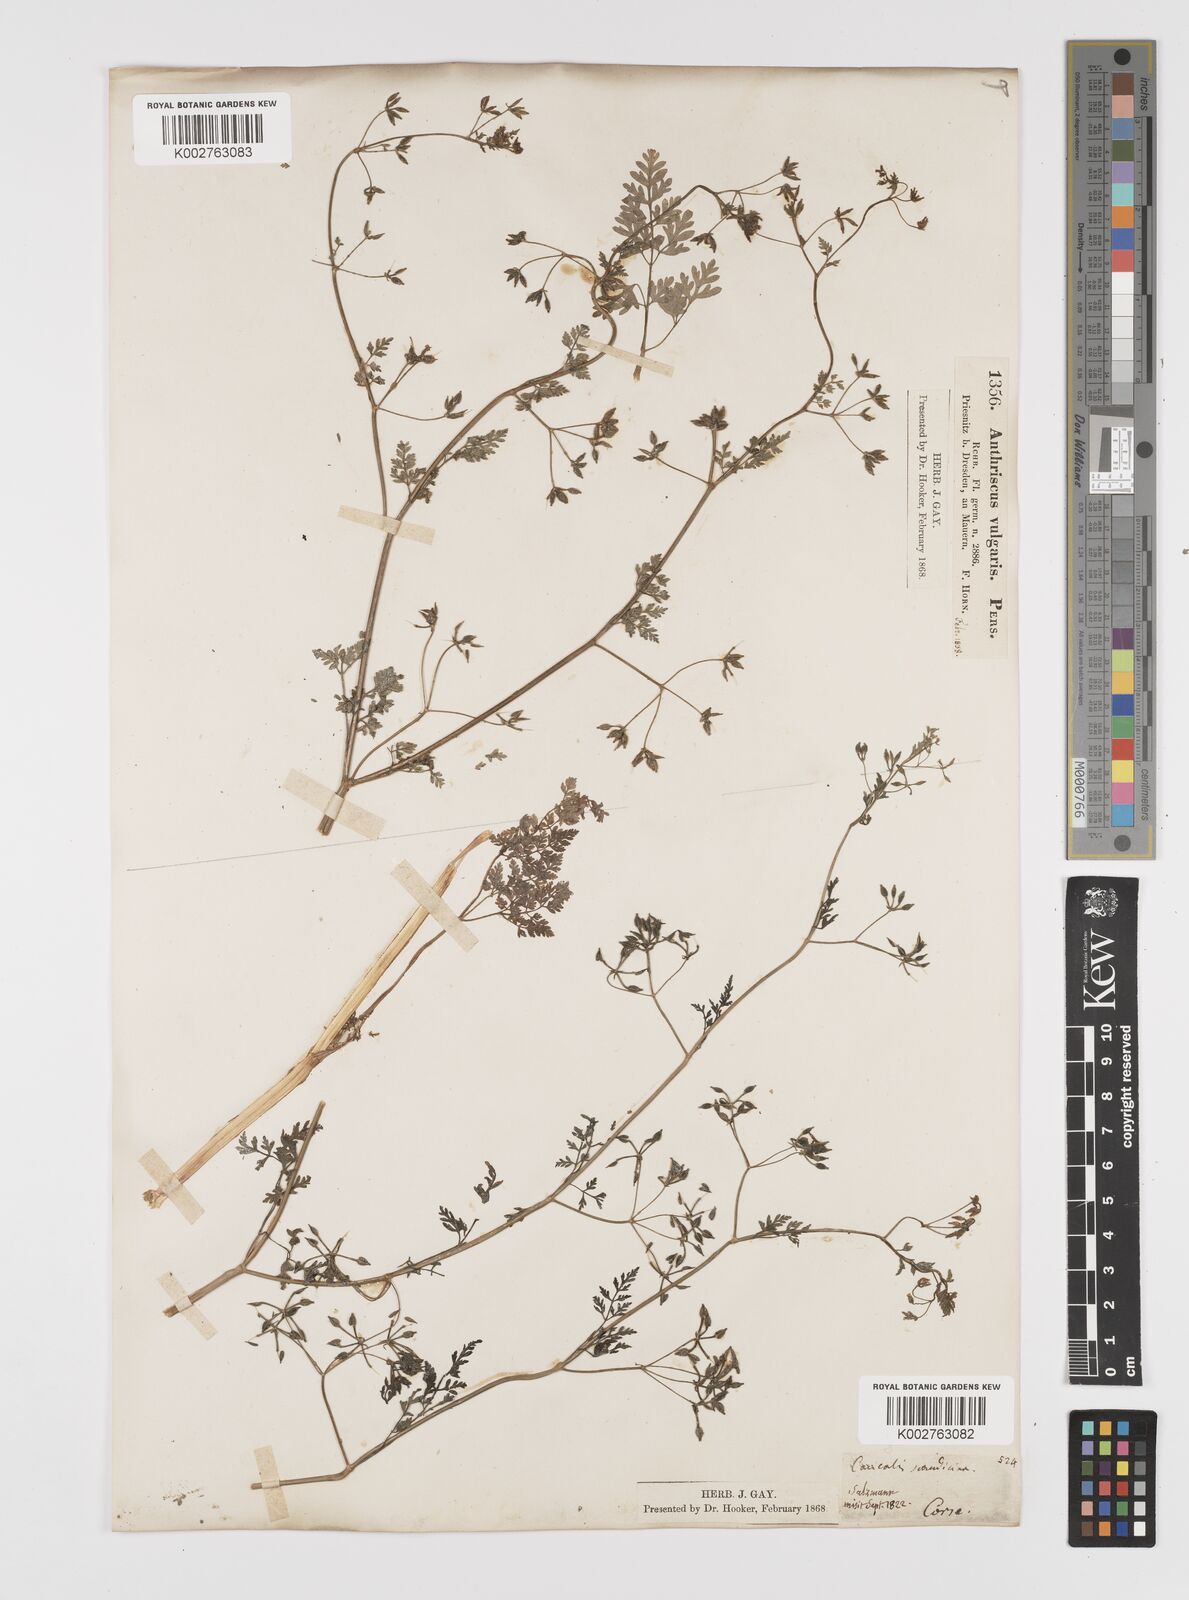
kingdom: Plantae
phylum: Tracheophyta
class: Magnoliopsida
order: Apiales
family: Apiaceae
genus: Anthriscus
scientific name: Anthriscus caucalis
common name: Bur chervil
